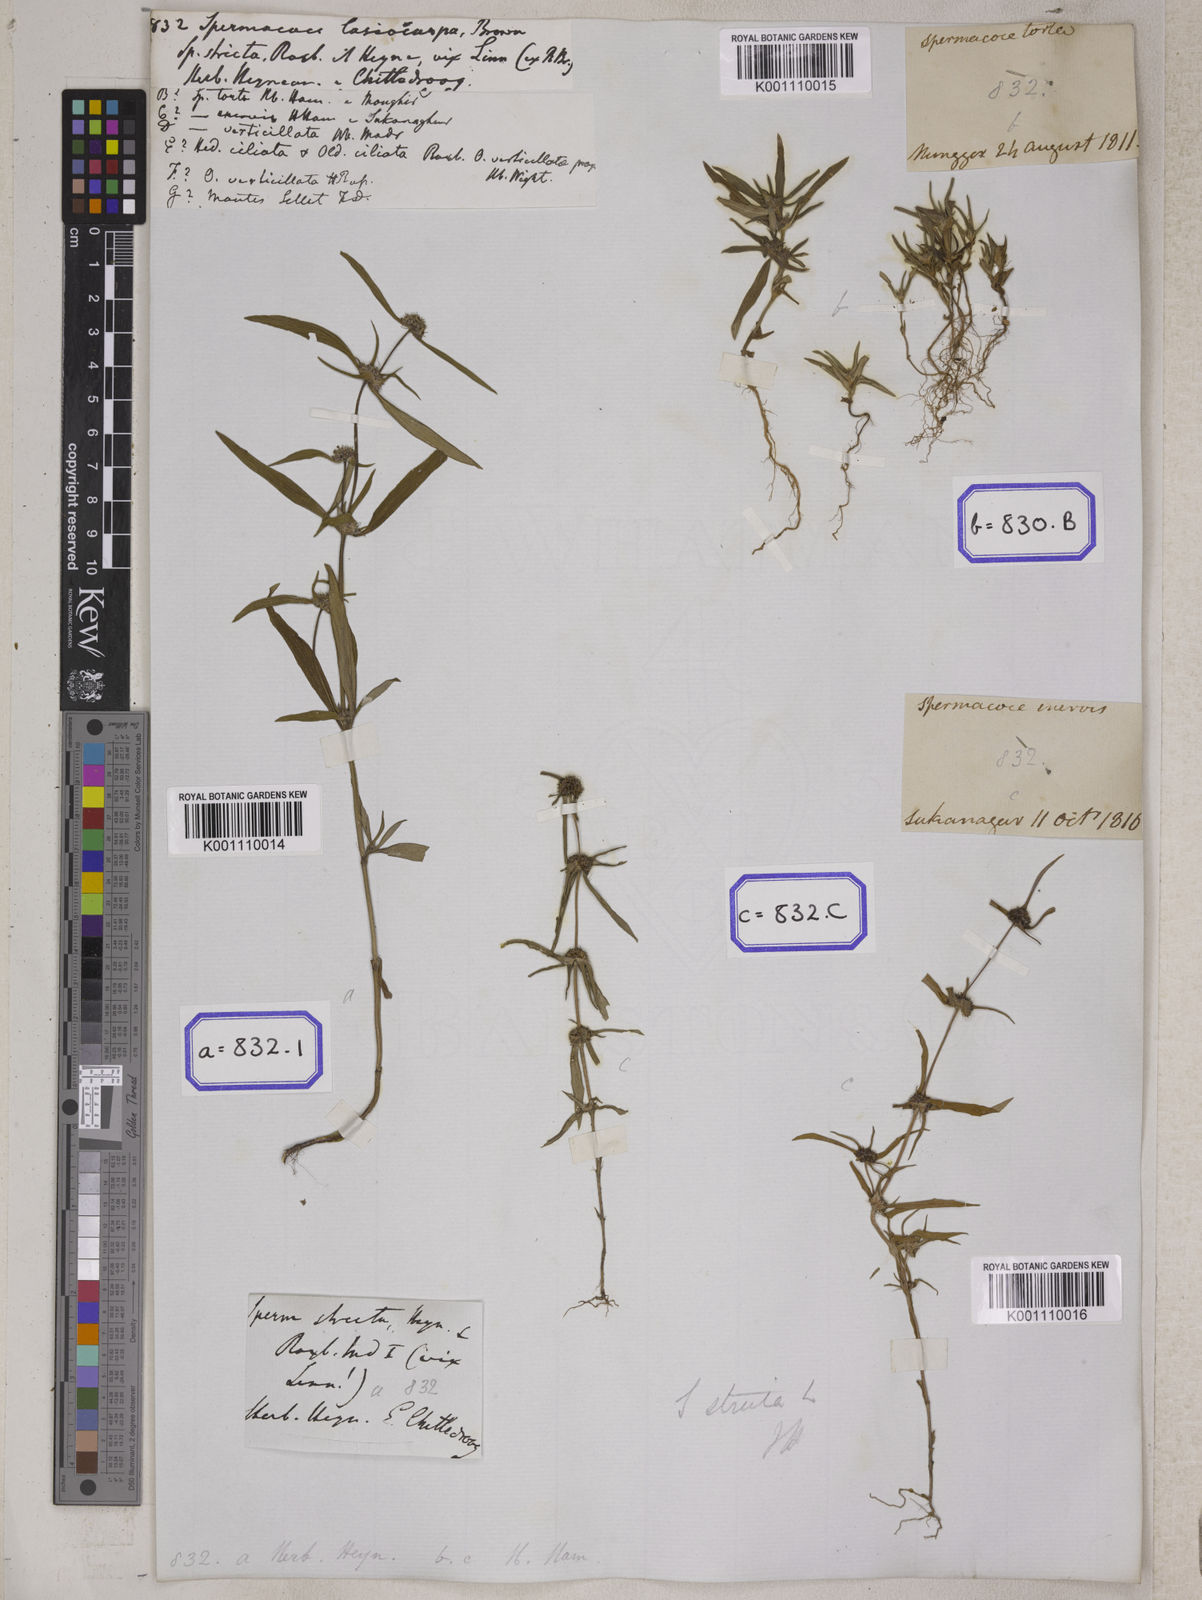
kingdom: Plantae
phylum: Tracheophyta
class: Magnoliopsida
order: Gentianales
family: Rubiaceae
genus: Spermacoce
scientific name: Spermacoce
